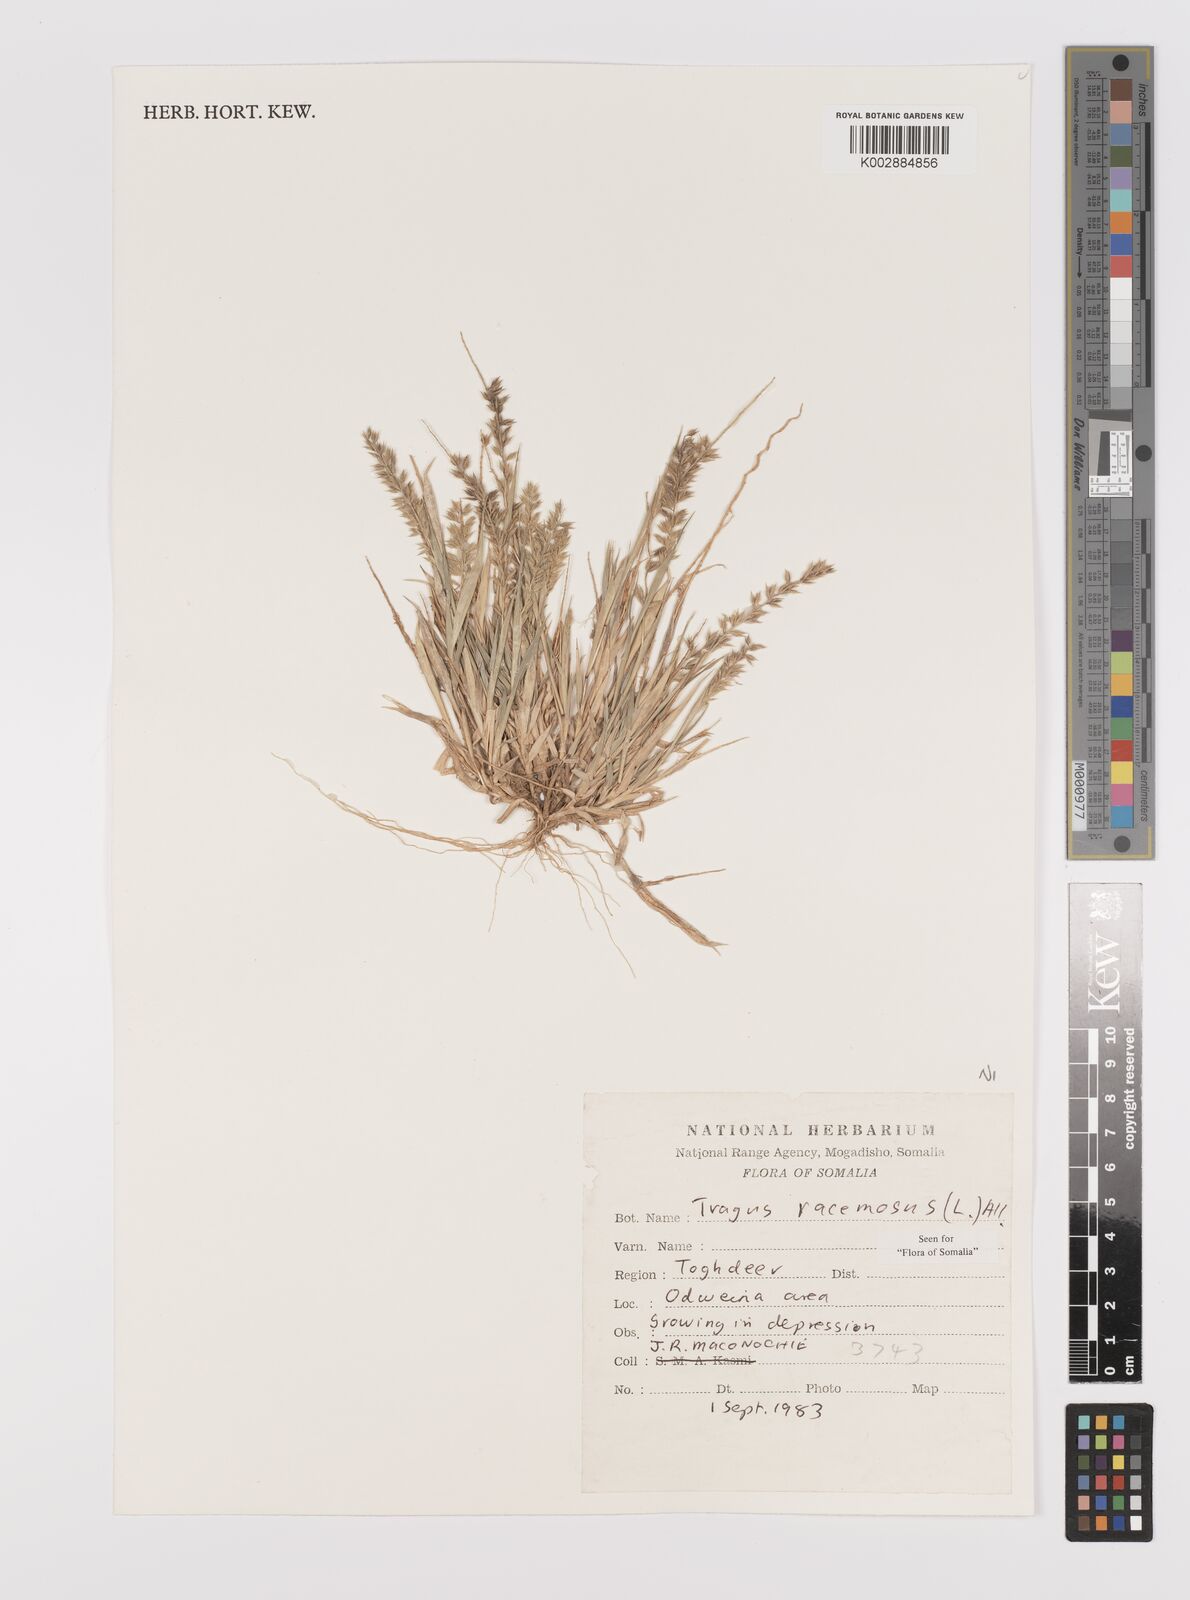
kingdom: Plantae
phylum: Tracheophyta
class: Liliopsida
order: Poales
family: Poaceae
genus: Tragus
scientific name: Tragus racemosus
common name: European bur-grass
